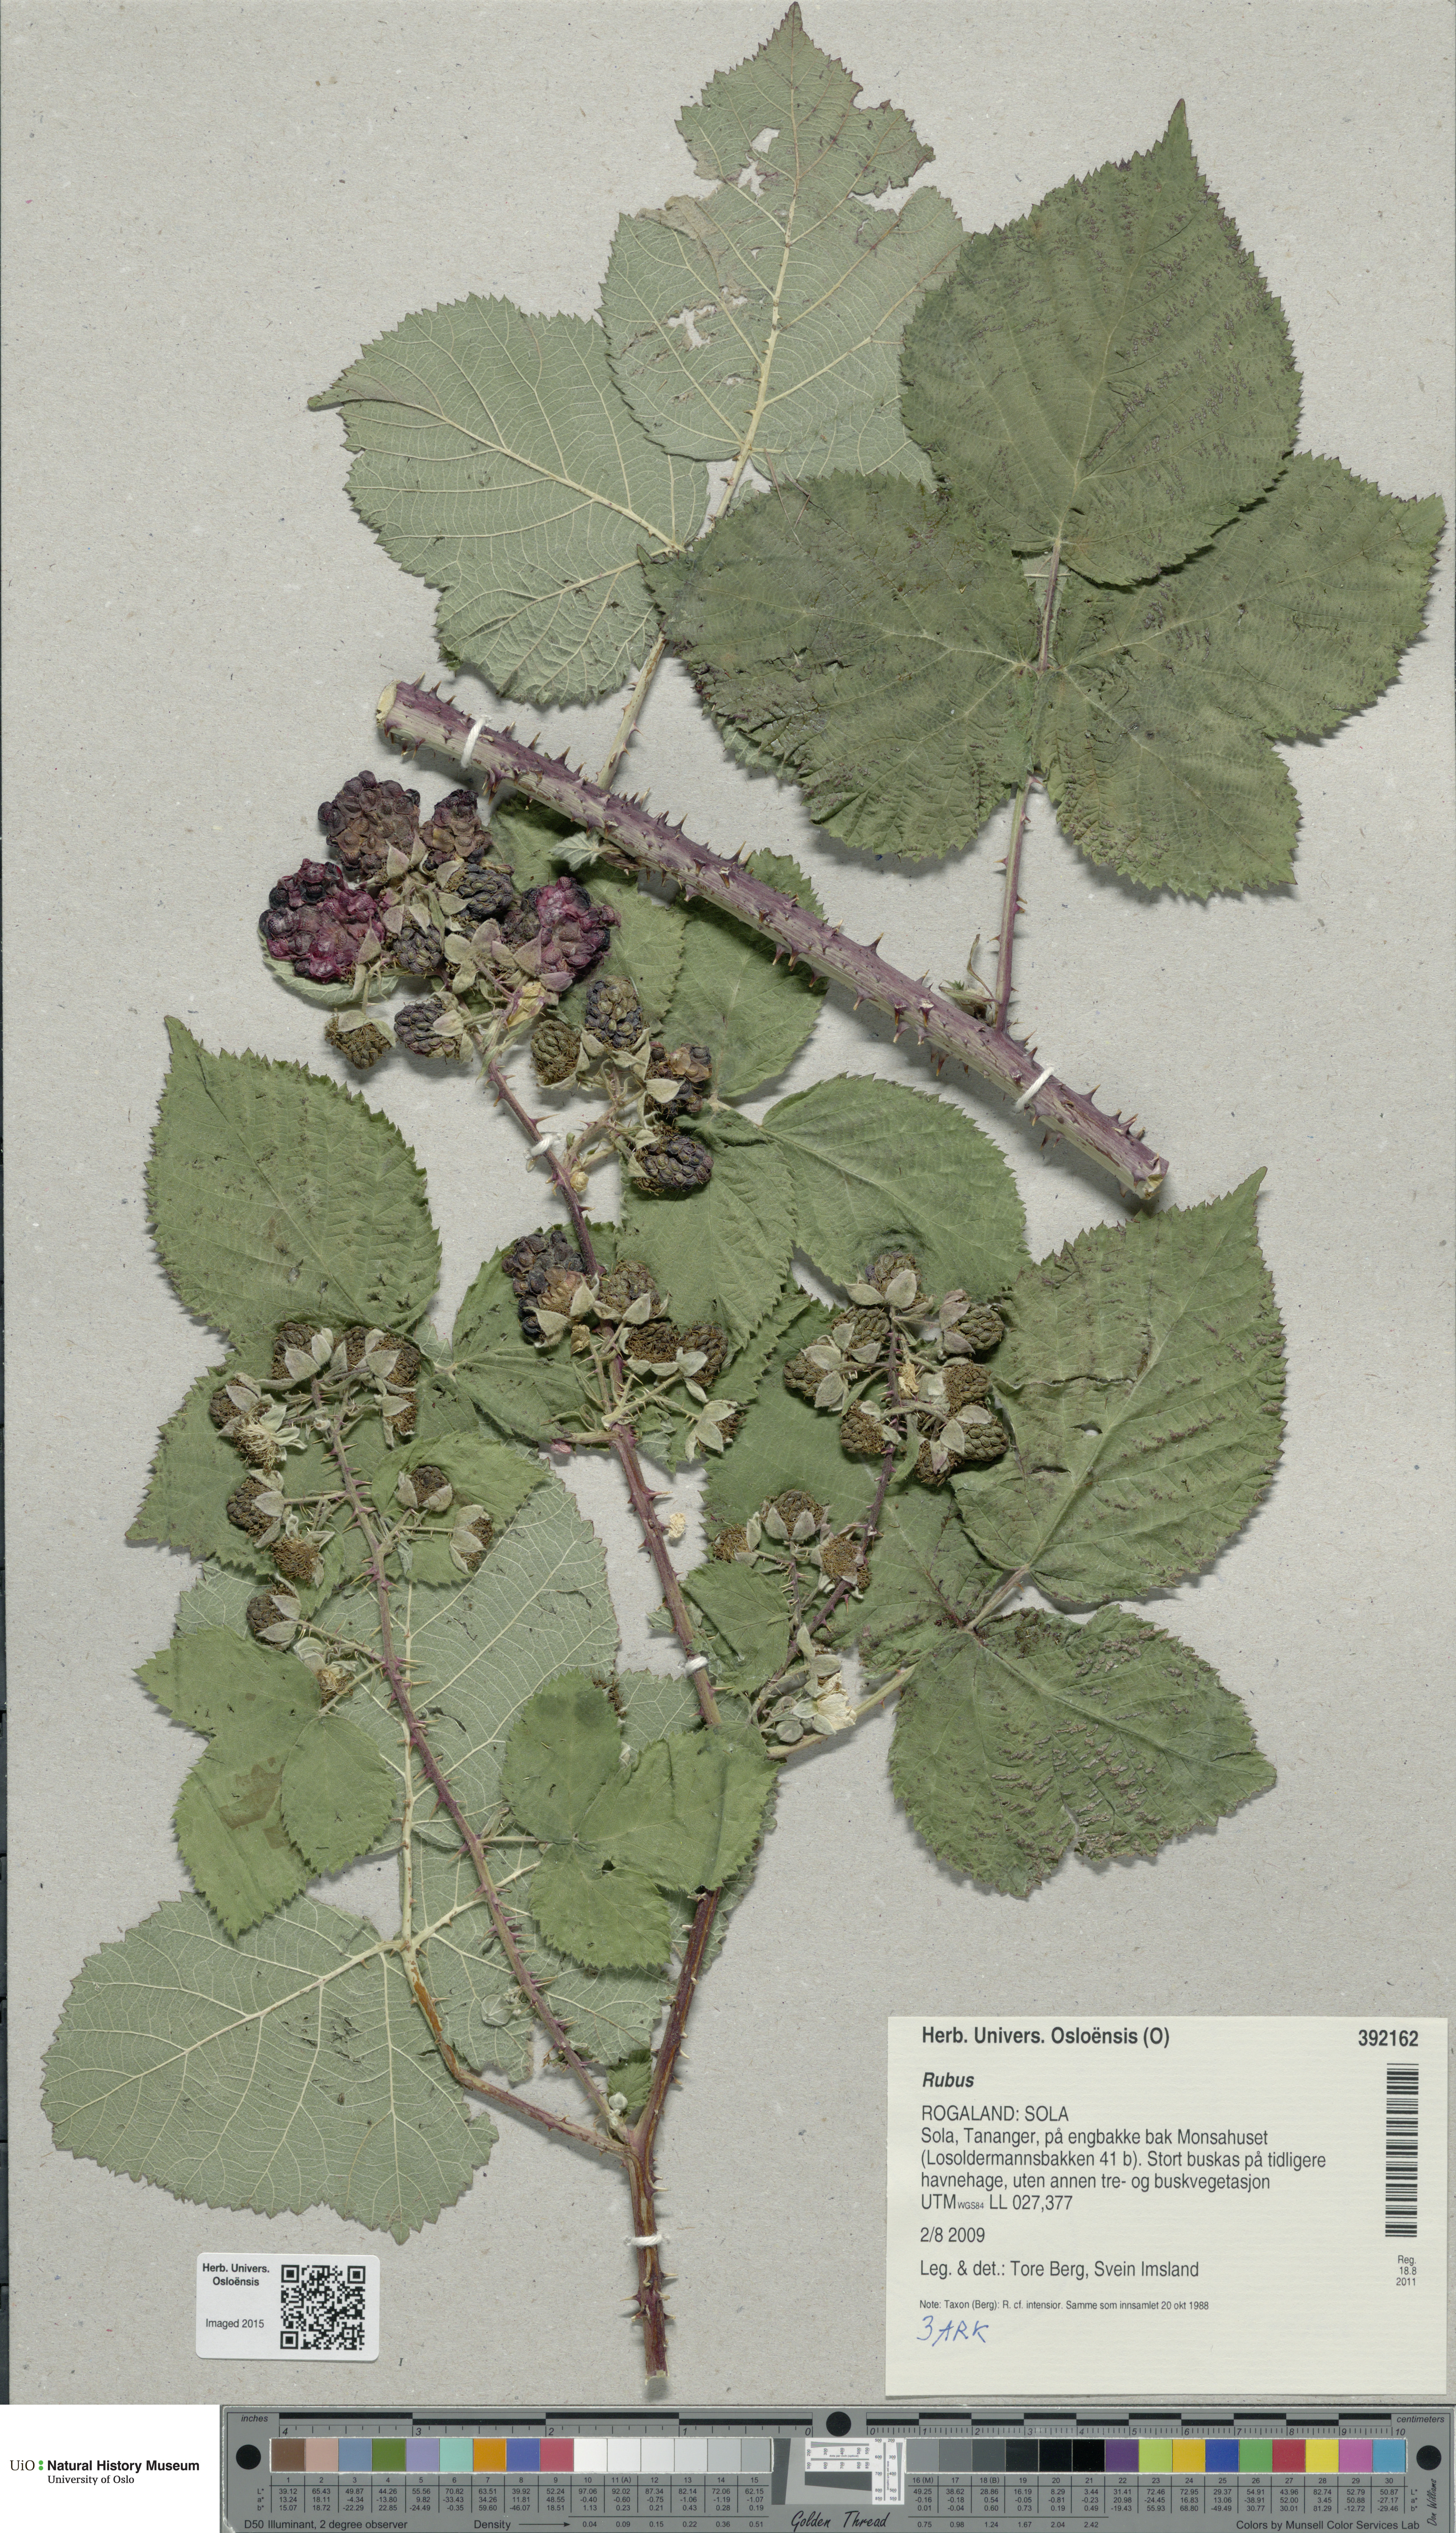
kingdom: Plantae
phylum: Tracheophyta
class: Magnoliopsida
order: Rosales
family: Rosaceae
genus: Rubus
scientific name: Rubus
